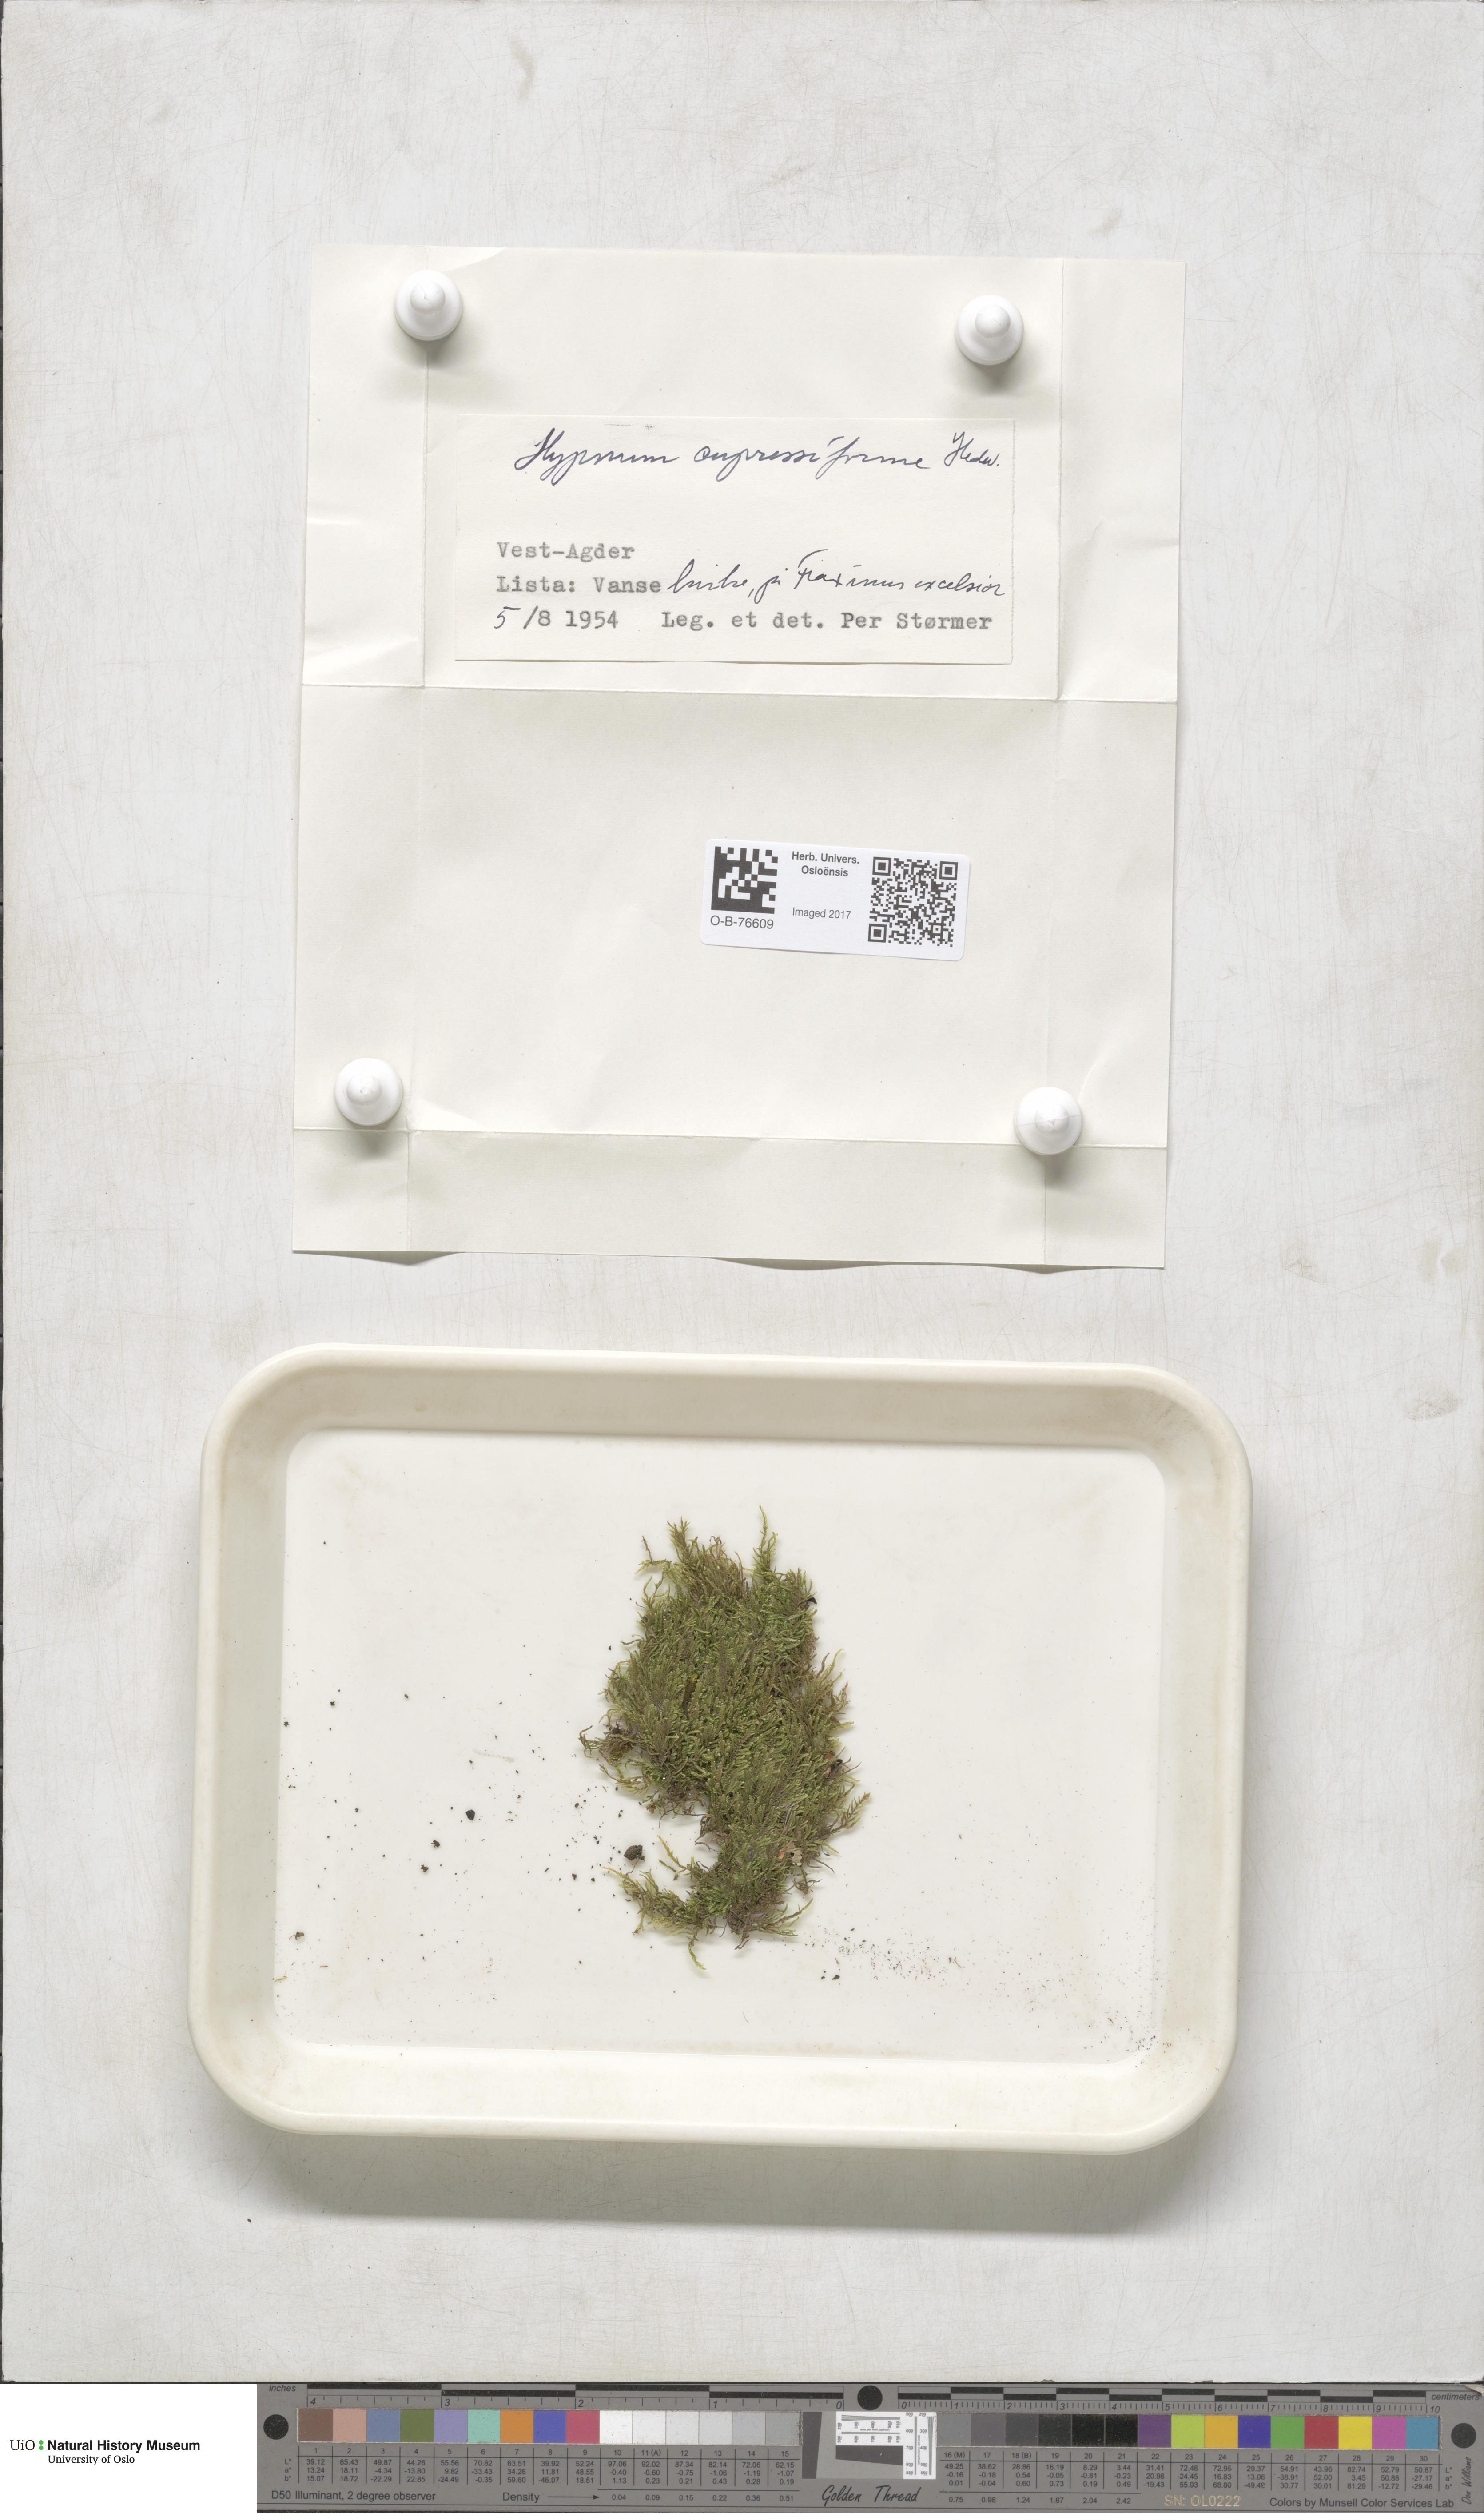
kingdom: Plantae
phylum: Bryophyta
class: Bryopsida
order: Hypnales
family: Hypnaceae
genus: Hypnum
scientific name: Hypnum cupressiforme
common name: Cypress-leaved plait-moss
